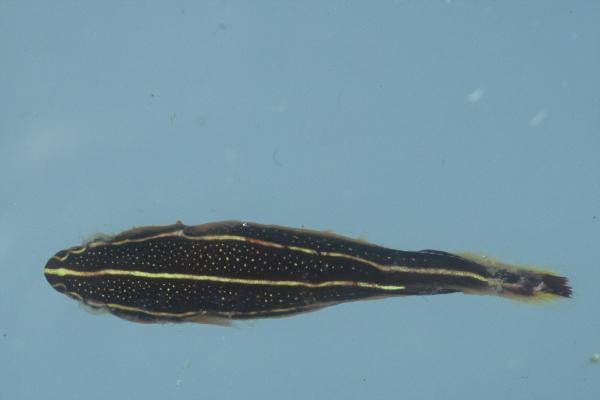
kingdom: Animalia
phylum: Chordata
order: Gobiesociformes
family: Gobiesocidae
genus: Lepadichthys
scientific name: Lepadichthys lineatus
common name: Doubleline clingfish
